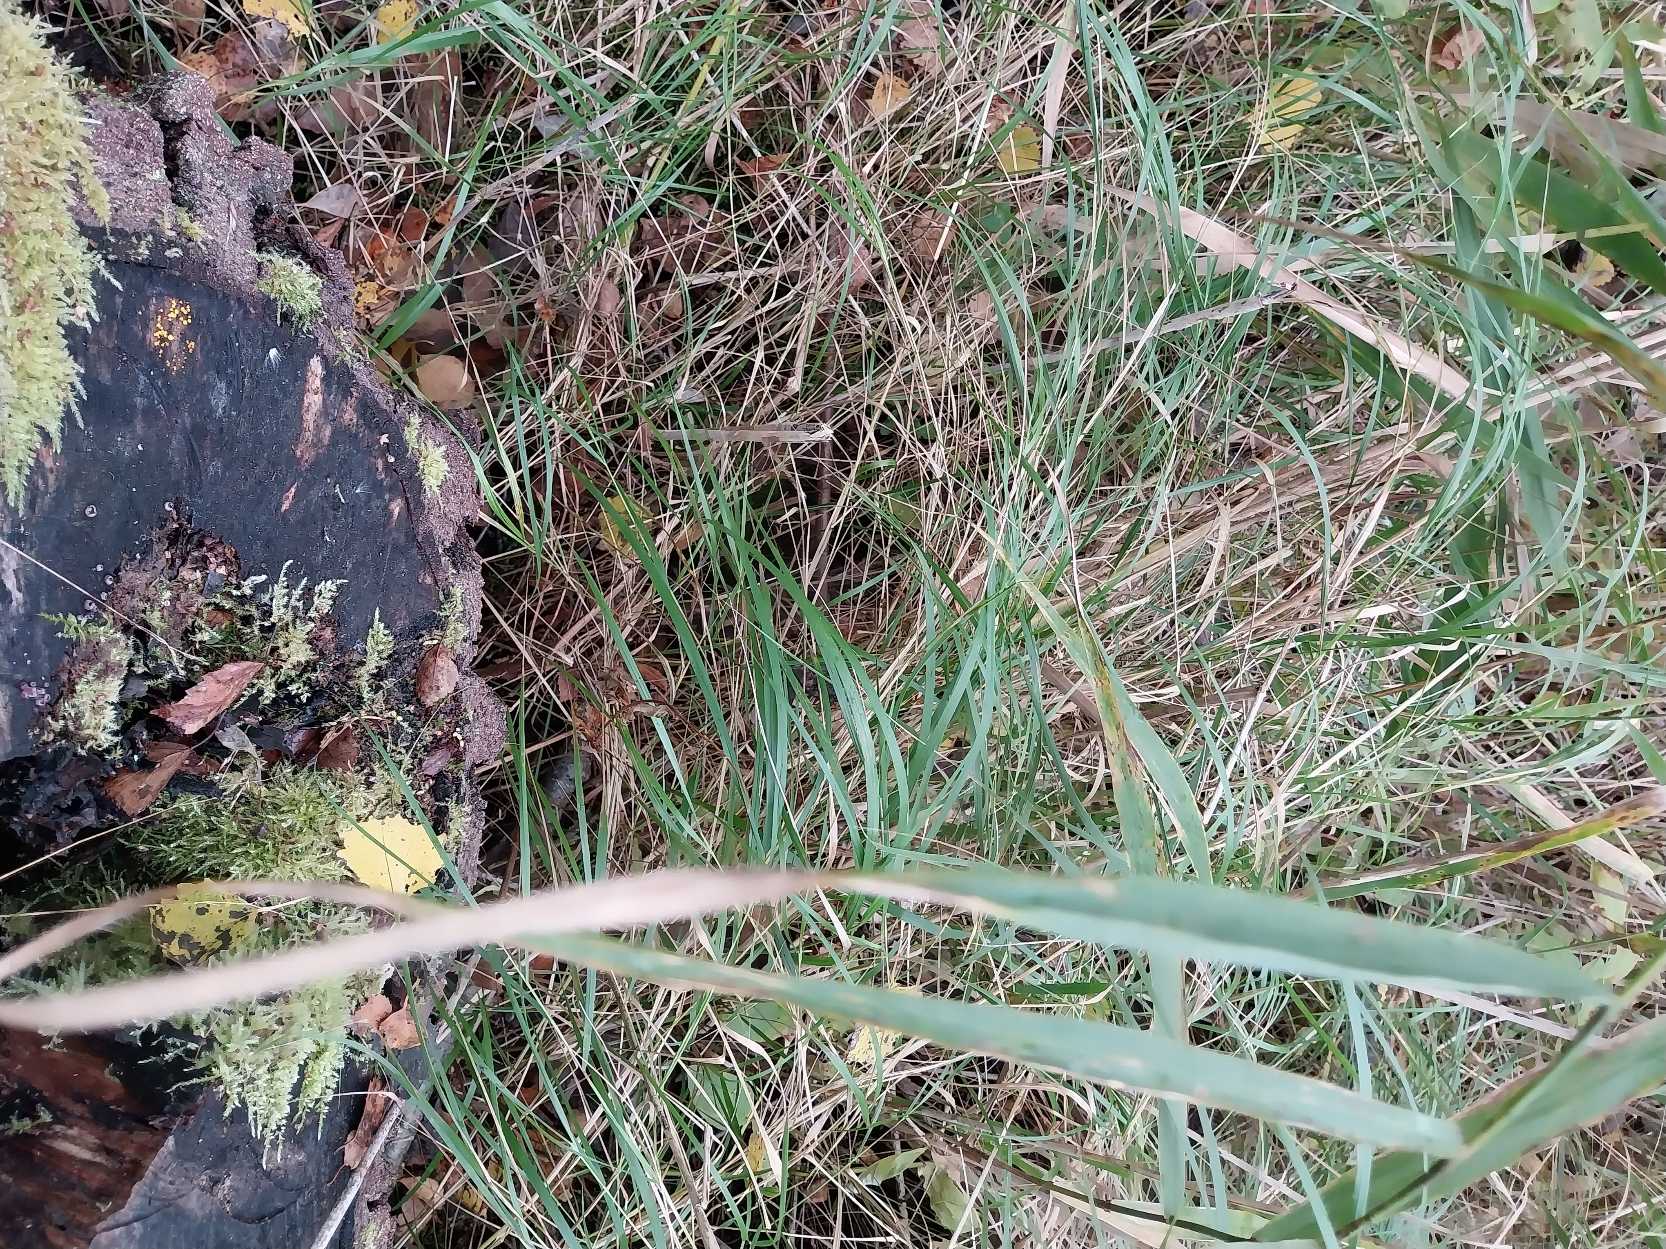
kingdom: Plantae
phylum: Tracheophyta
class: Liliopsida
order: Poales
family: Poaceae
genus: Calamagrostis
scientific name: Calamagrostis canescens
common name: Eng-rørhvene
